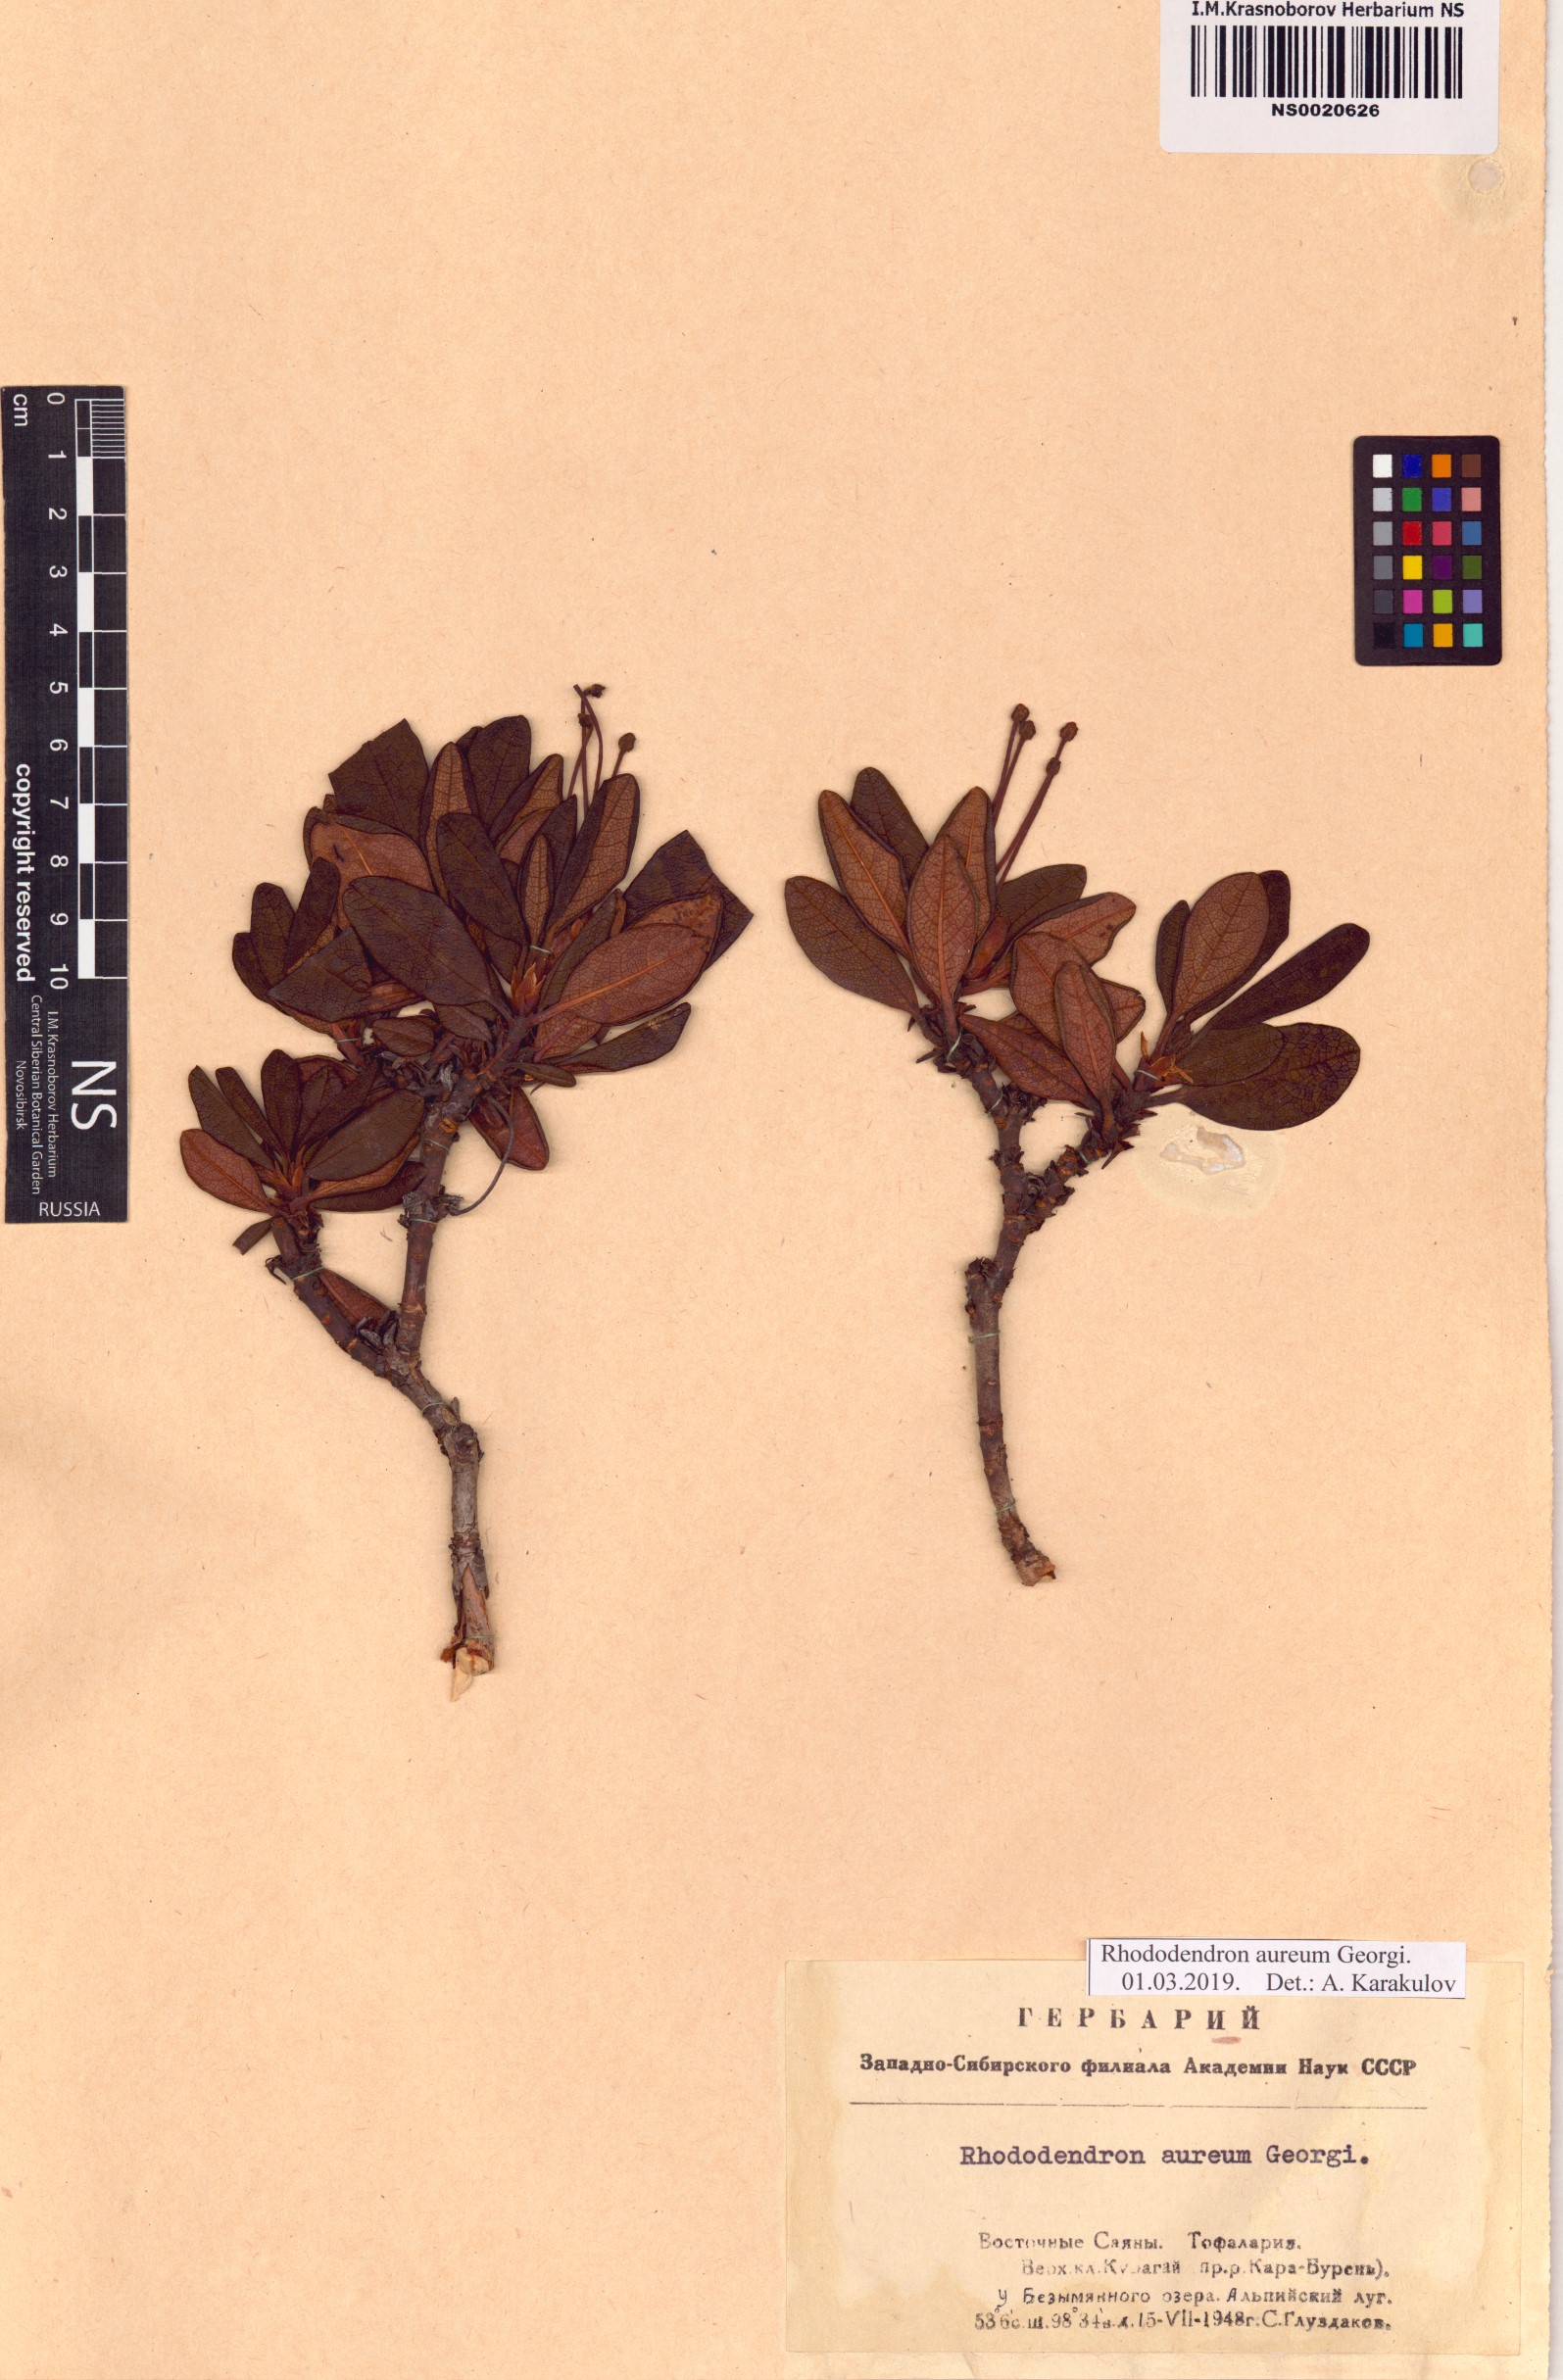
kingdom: Plantae
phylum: Tracheophyta
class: Magnoliopsida
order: Ericales
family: Ericaceae
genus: Rhododendron
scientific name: Rhododendron aureum
